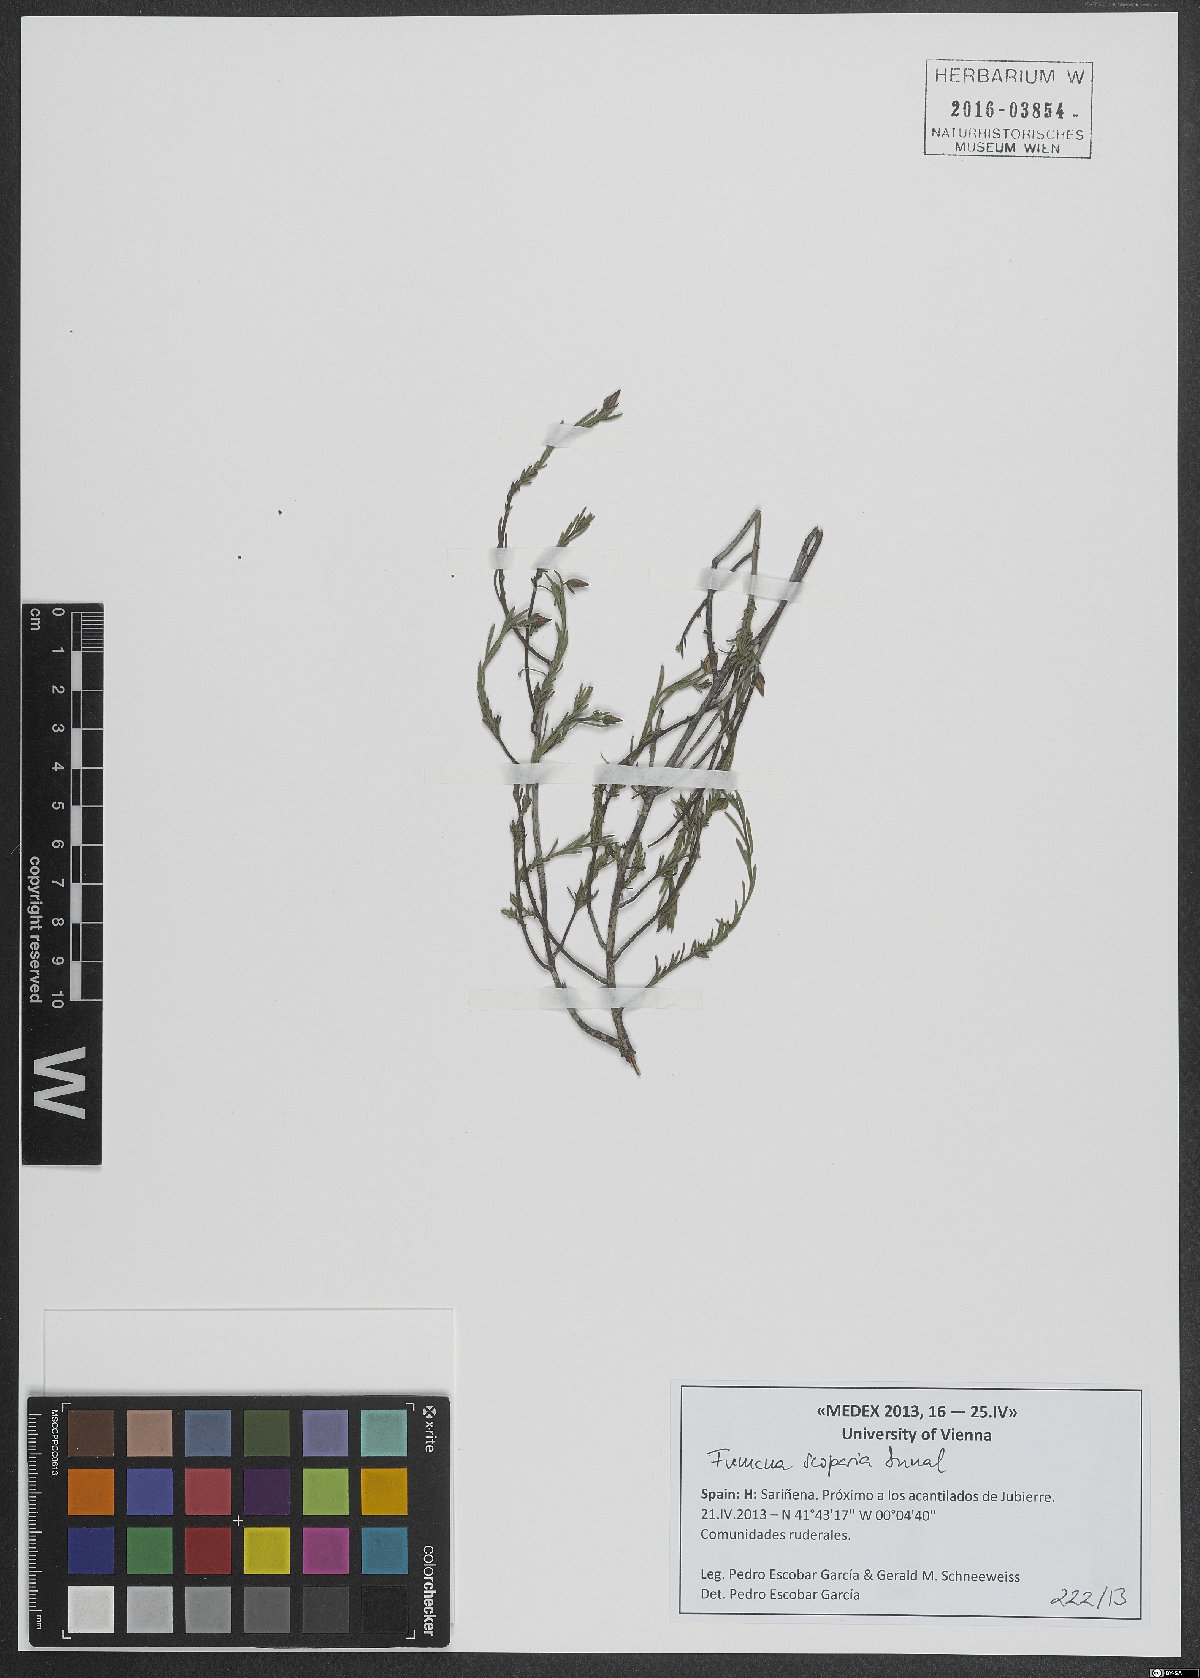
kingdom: Plantae
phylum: Tracheophyta
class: Magnoliopsida
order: Malvales
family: Cistaceae
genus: Fumana
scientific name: Fumana scoparia
